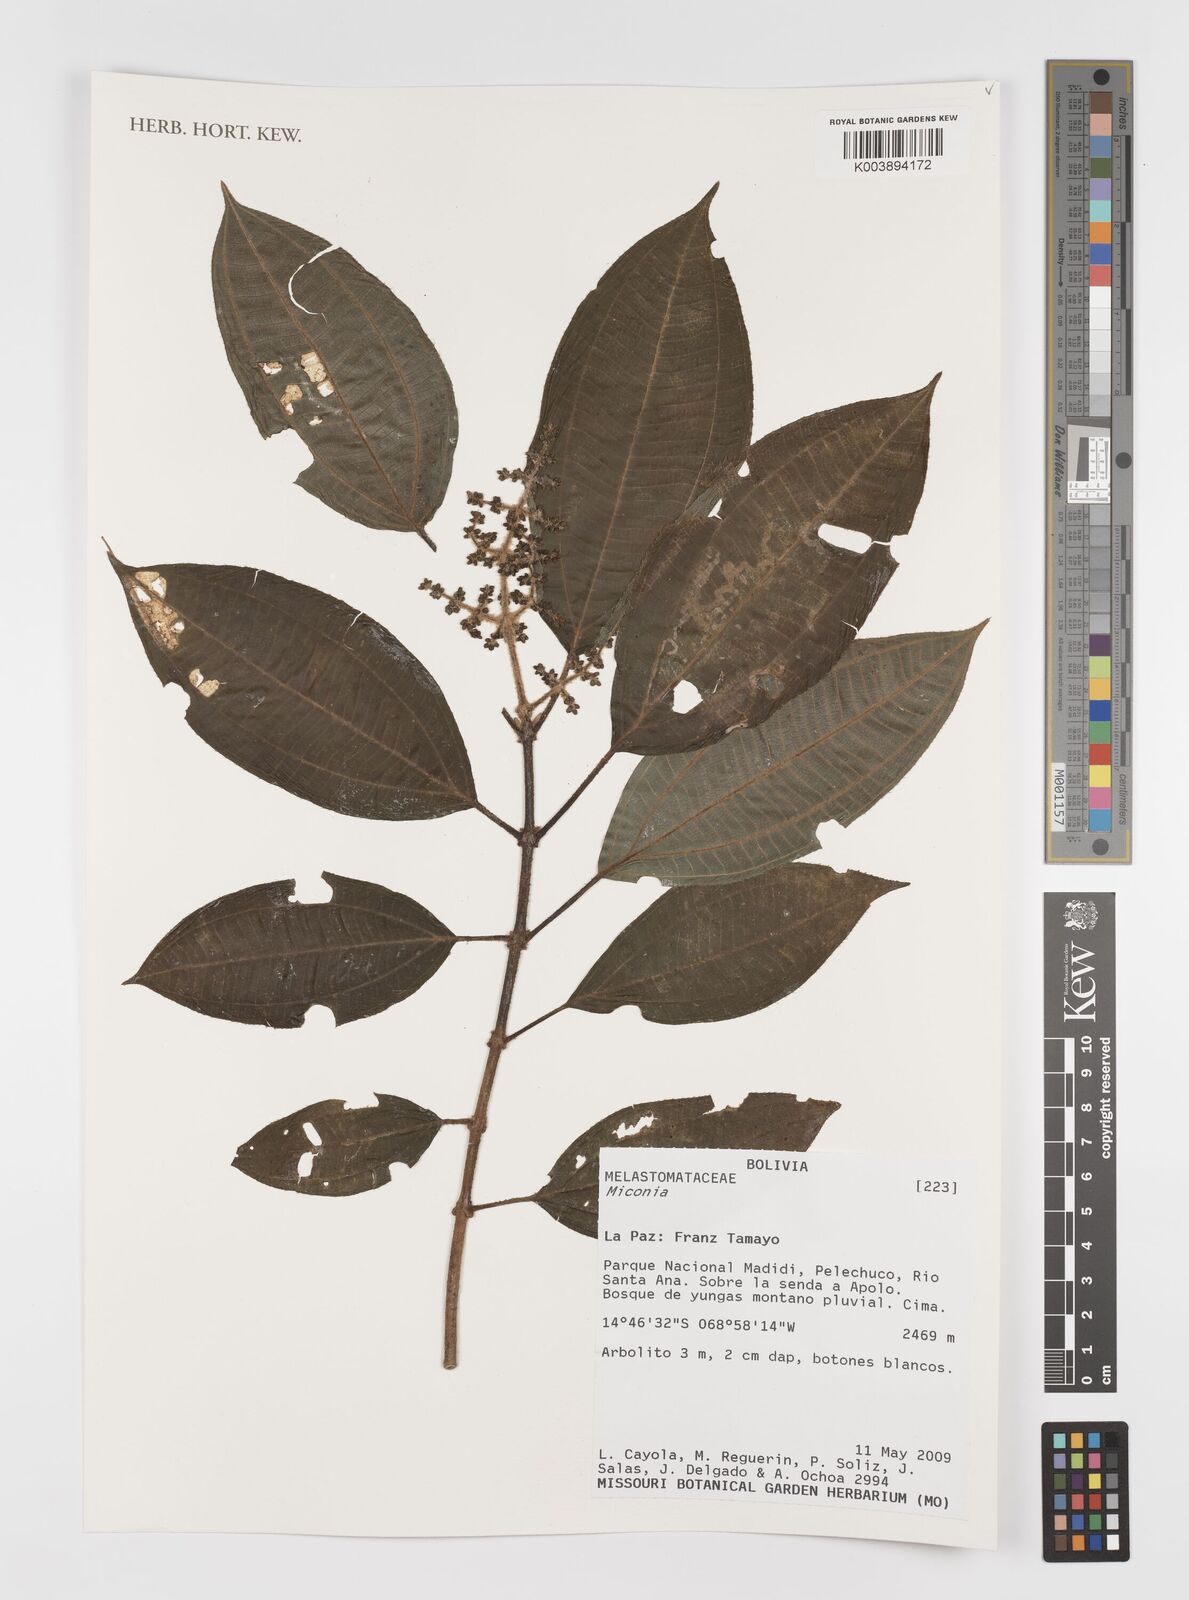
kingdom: Plantae
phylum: Tracheophyta
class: Magnoliopsida
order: Myrtales
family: Melastomataceae
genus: Miconia
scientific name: Miconia
